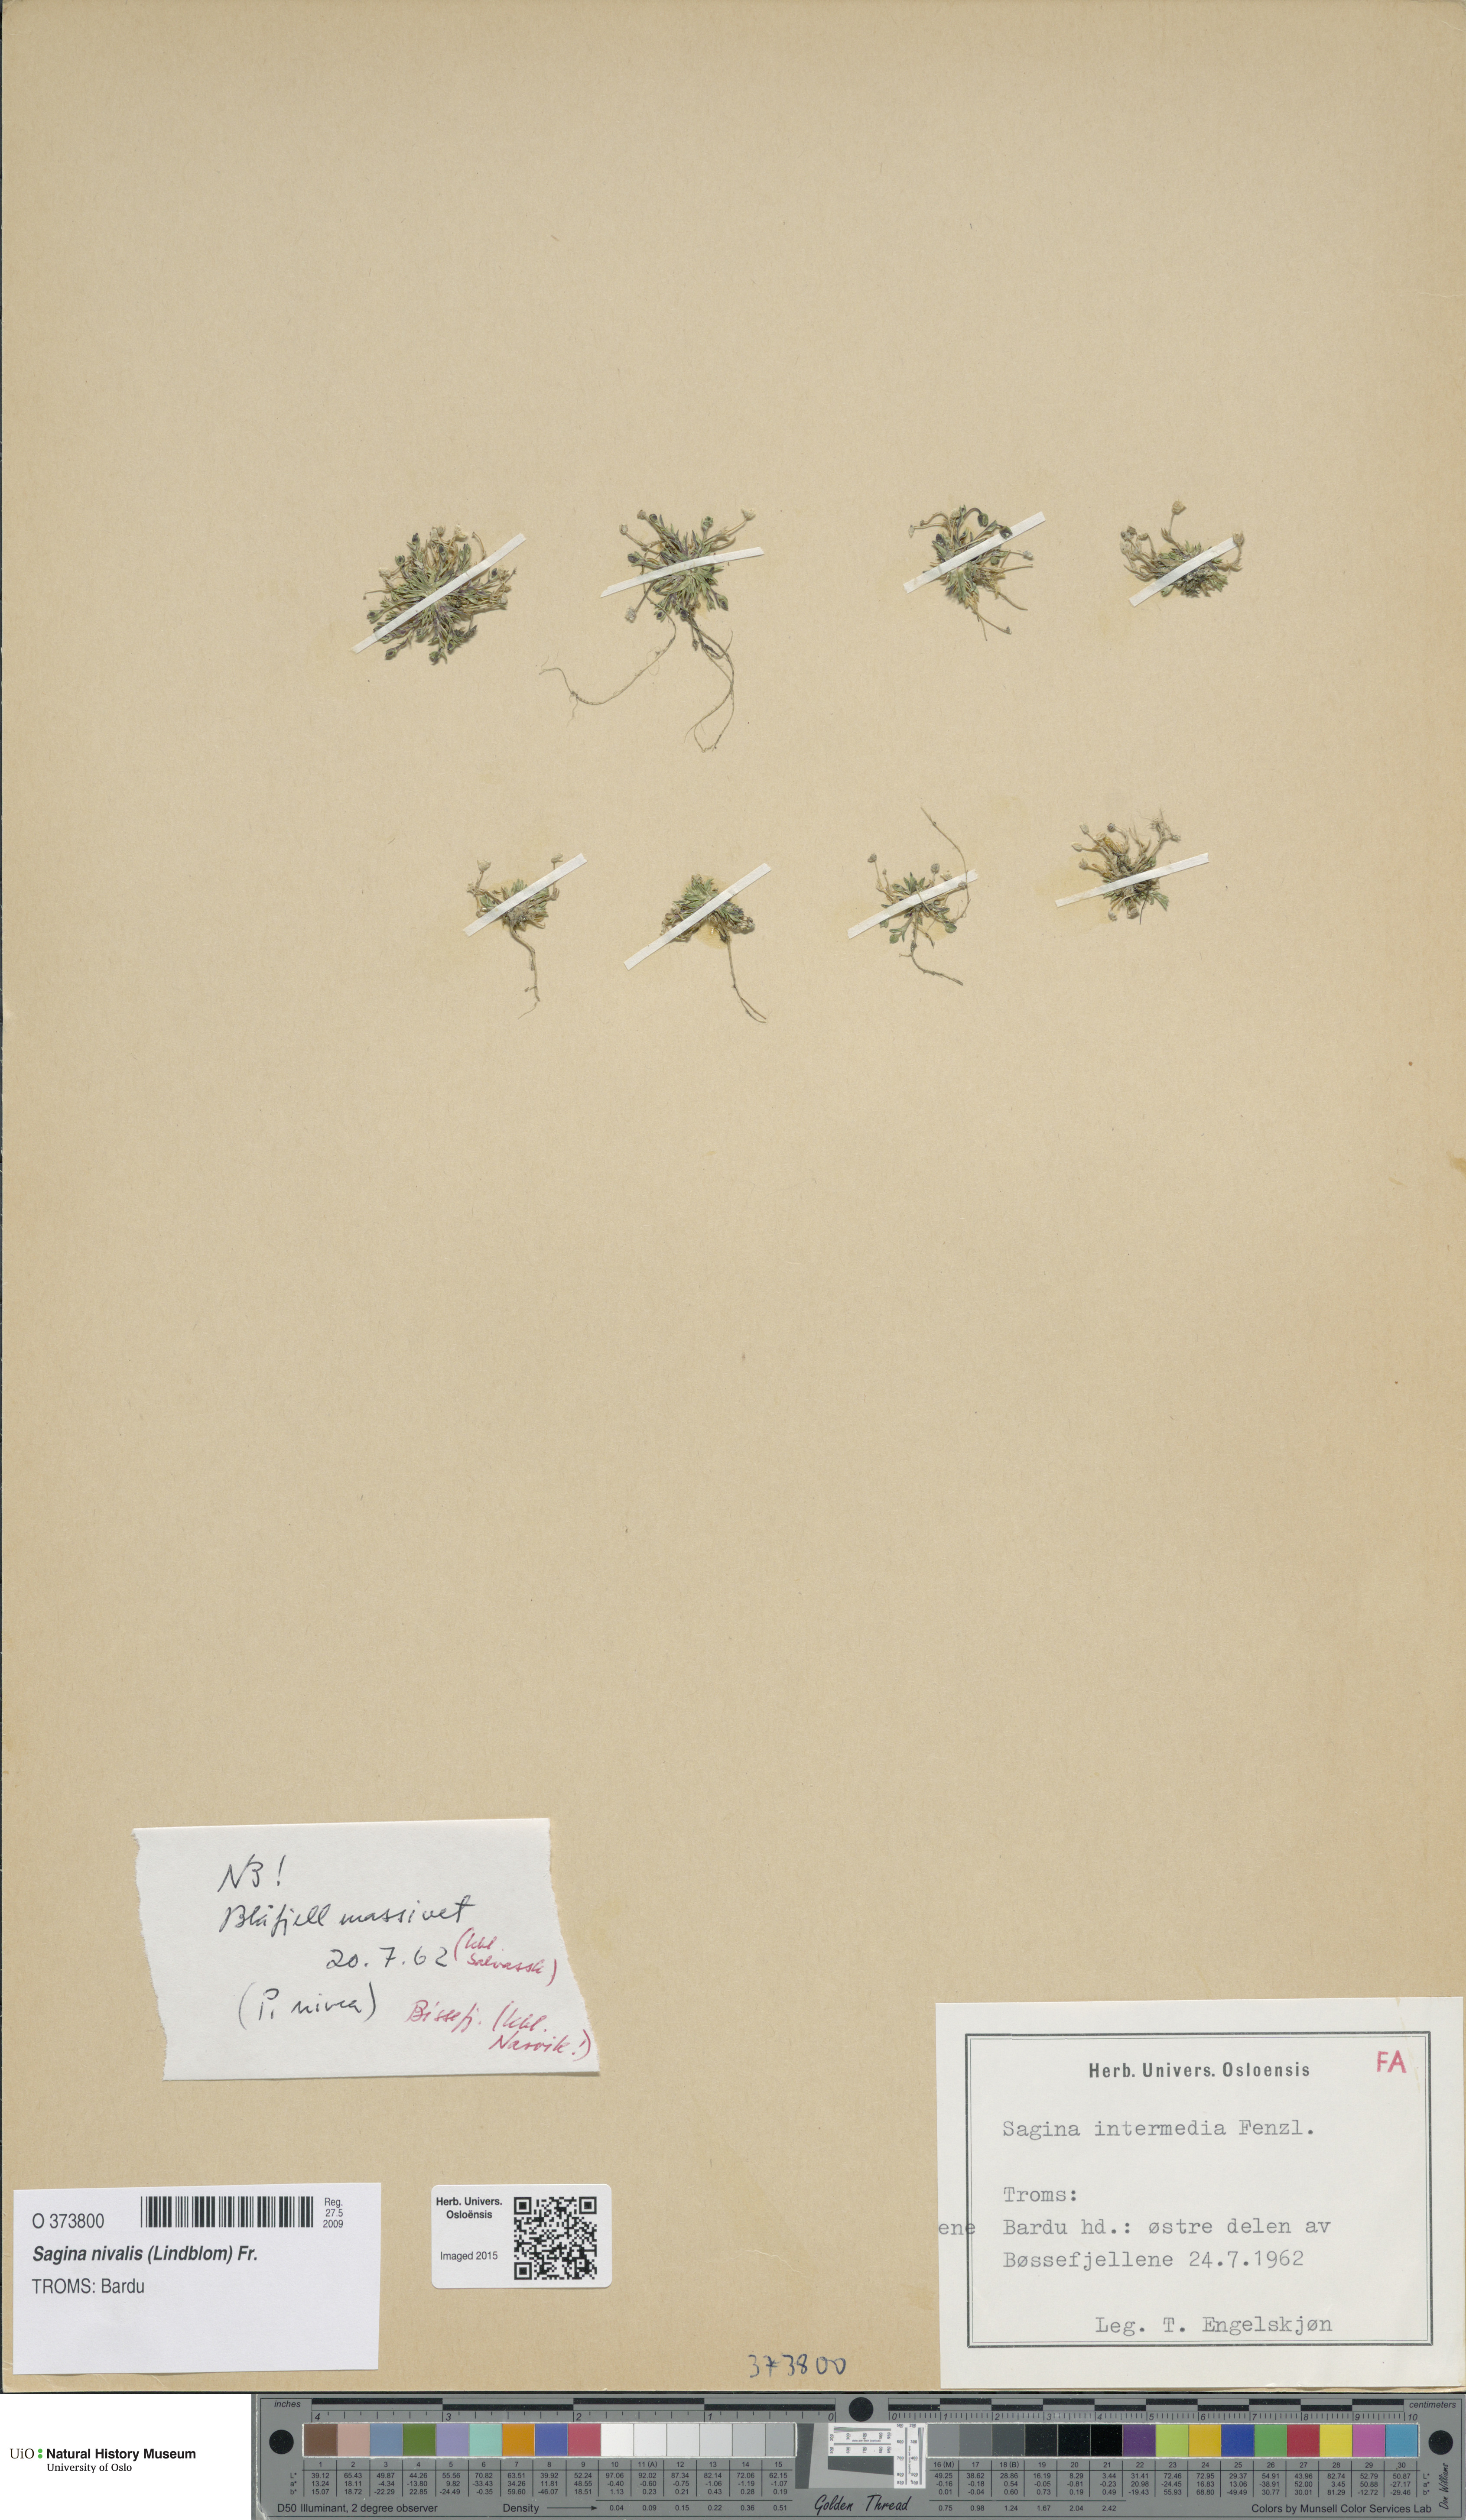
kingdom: Plantae
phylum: Tracheophyta
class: Magnoliopsida
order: Caryophyllales
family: Caryophyllaceae
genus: Sagina
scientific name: Sagina nivalis
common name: Snow pearlwort
